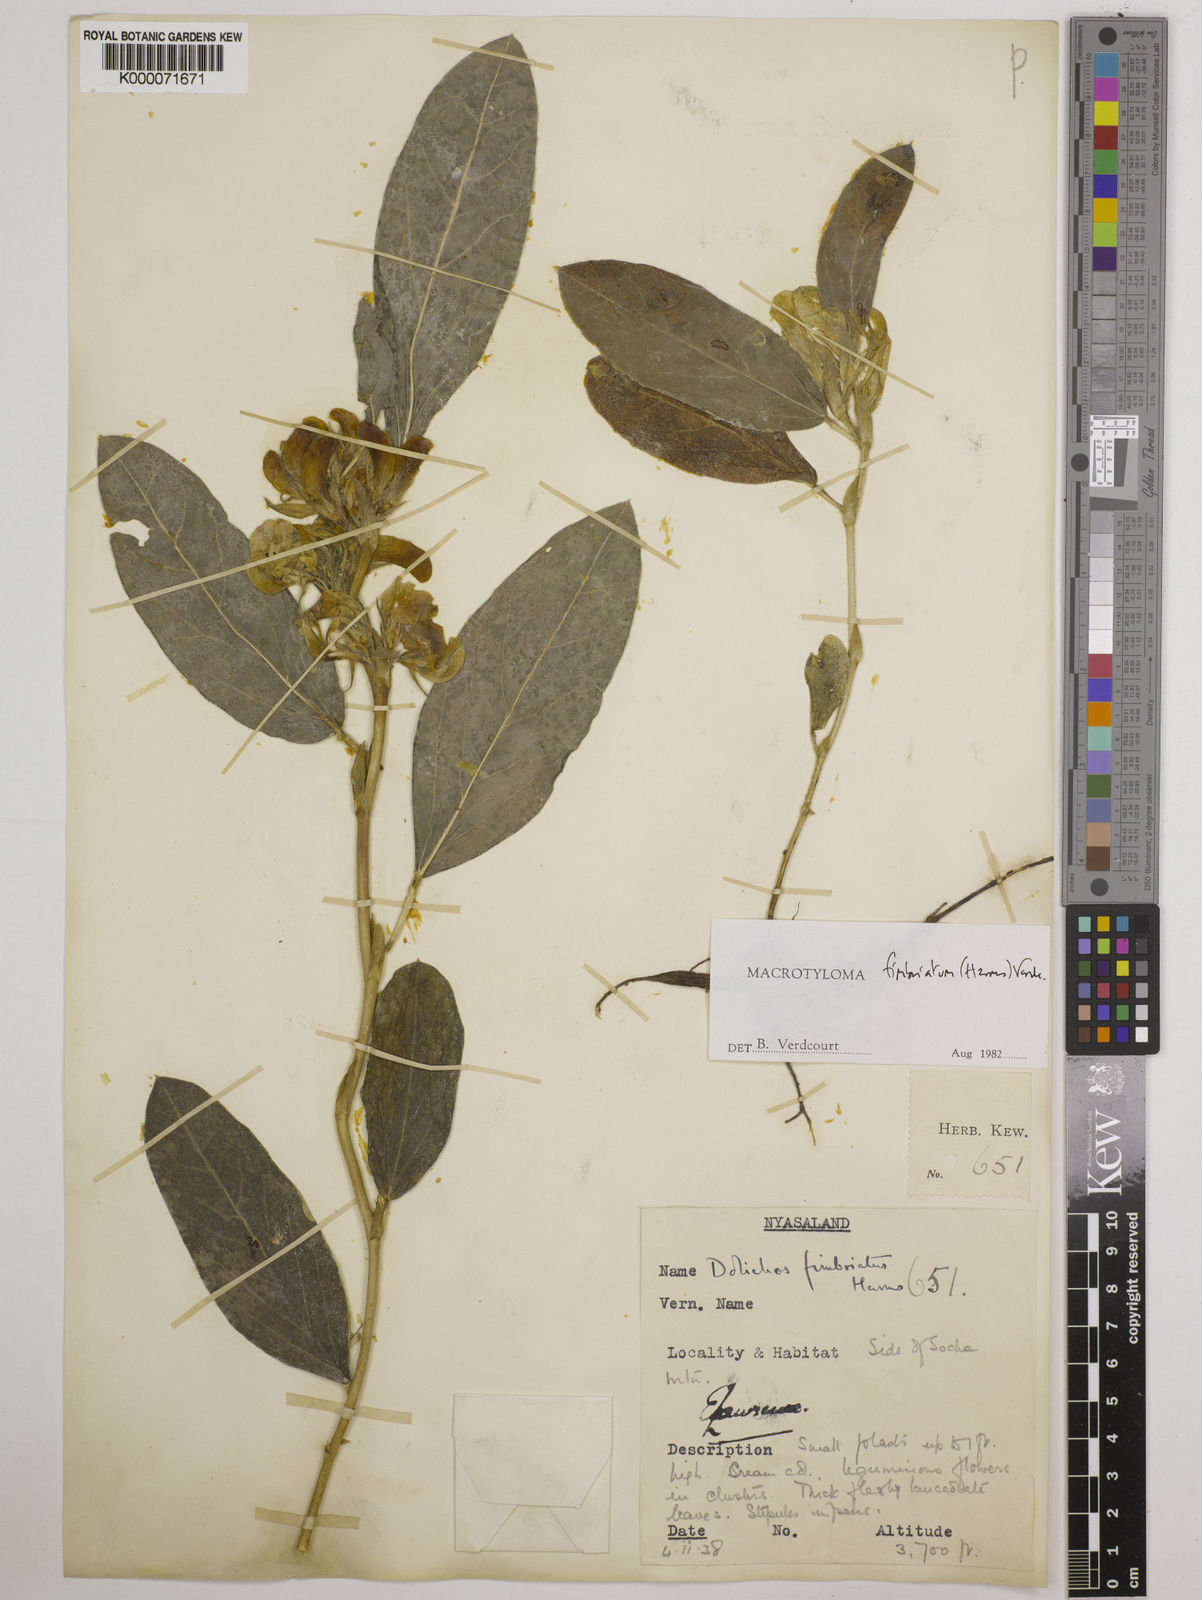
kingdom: Plantae
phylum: Tracheophyta
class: Magnoliopsida
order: Fabales
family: Fabaceae
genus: Macrotyloma
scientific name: Macrotyloma fimbriatum
